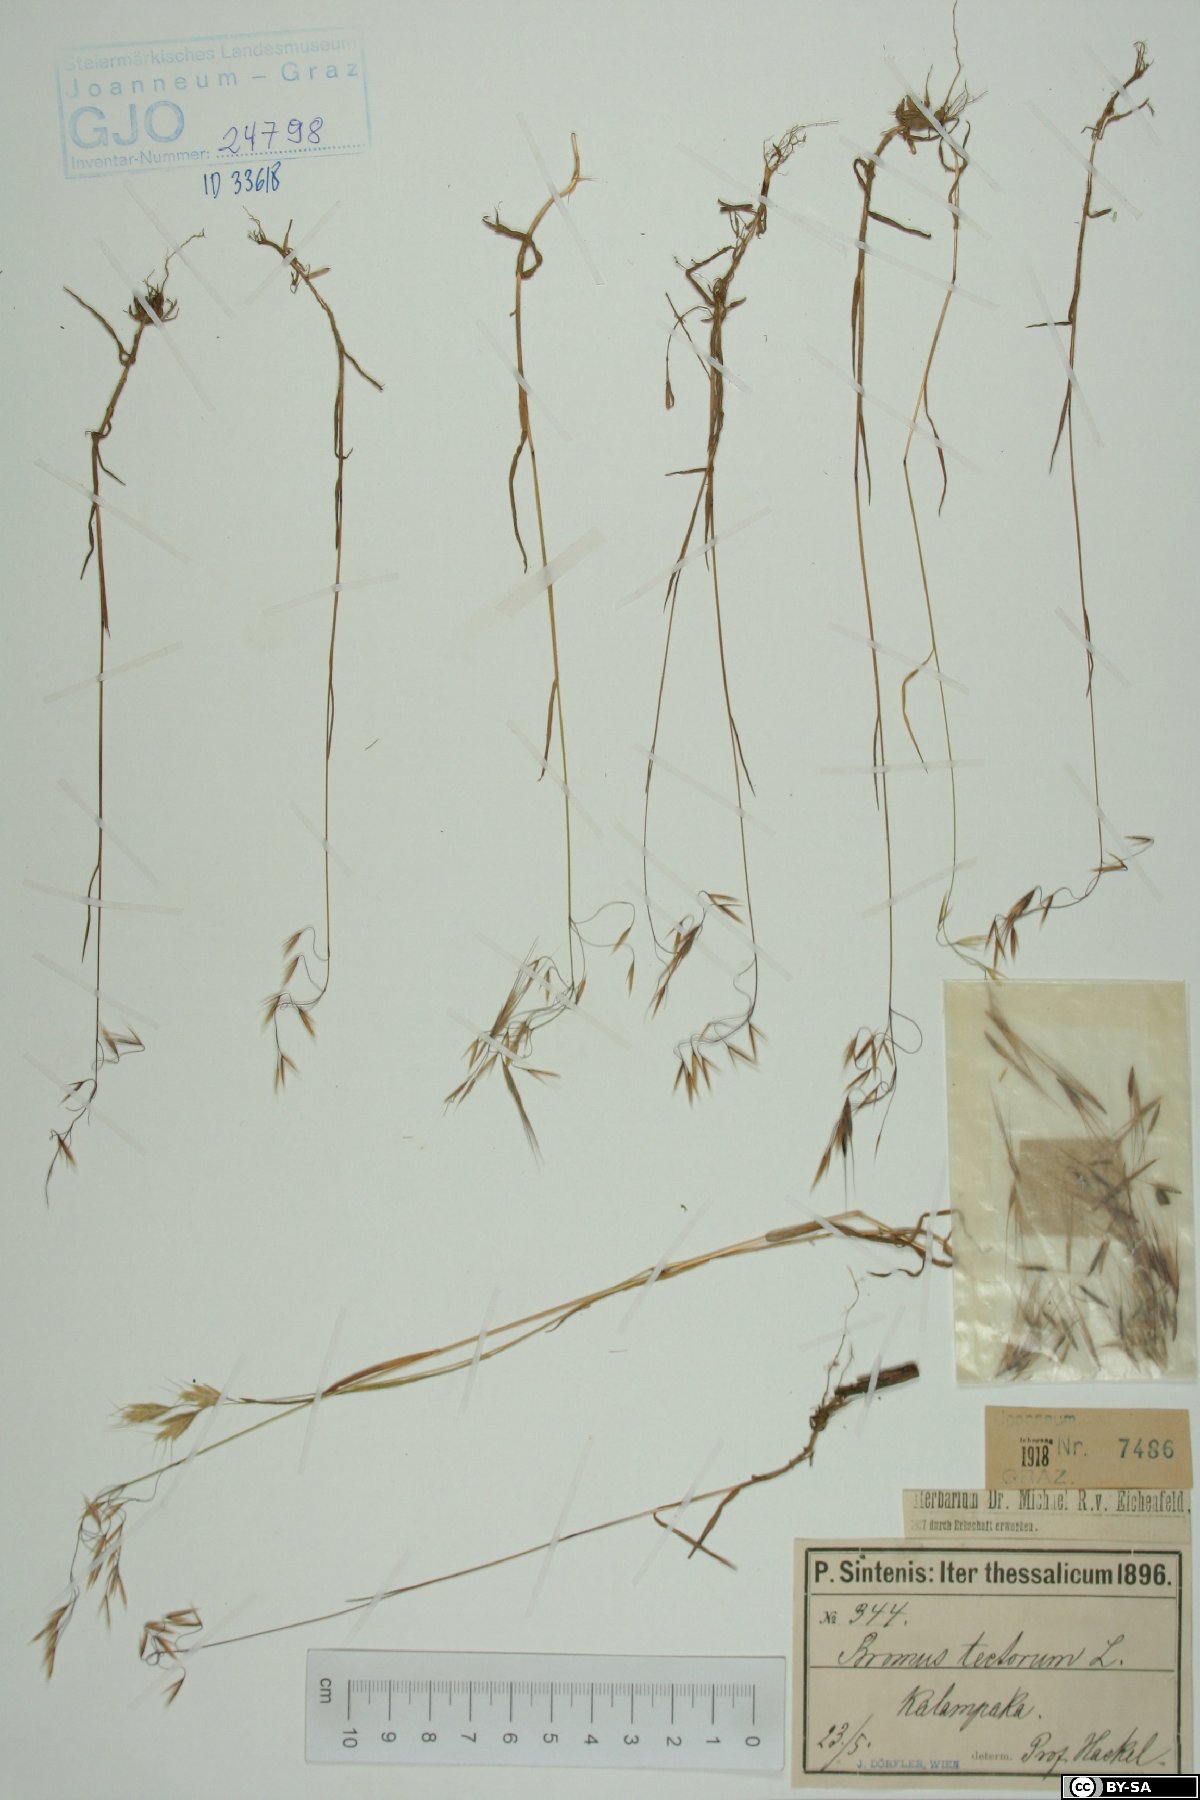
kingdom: Plantae
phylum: Tracheophyta
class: Liliopsida
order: Poales
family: Poaceae
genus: Bromus
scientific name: Bromus tectorum
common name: Cheatgrass
